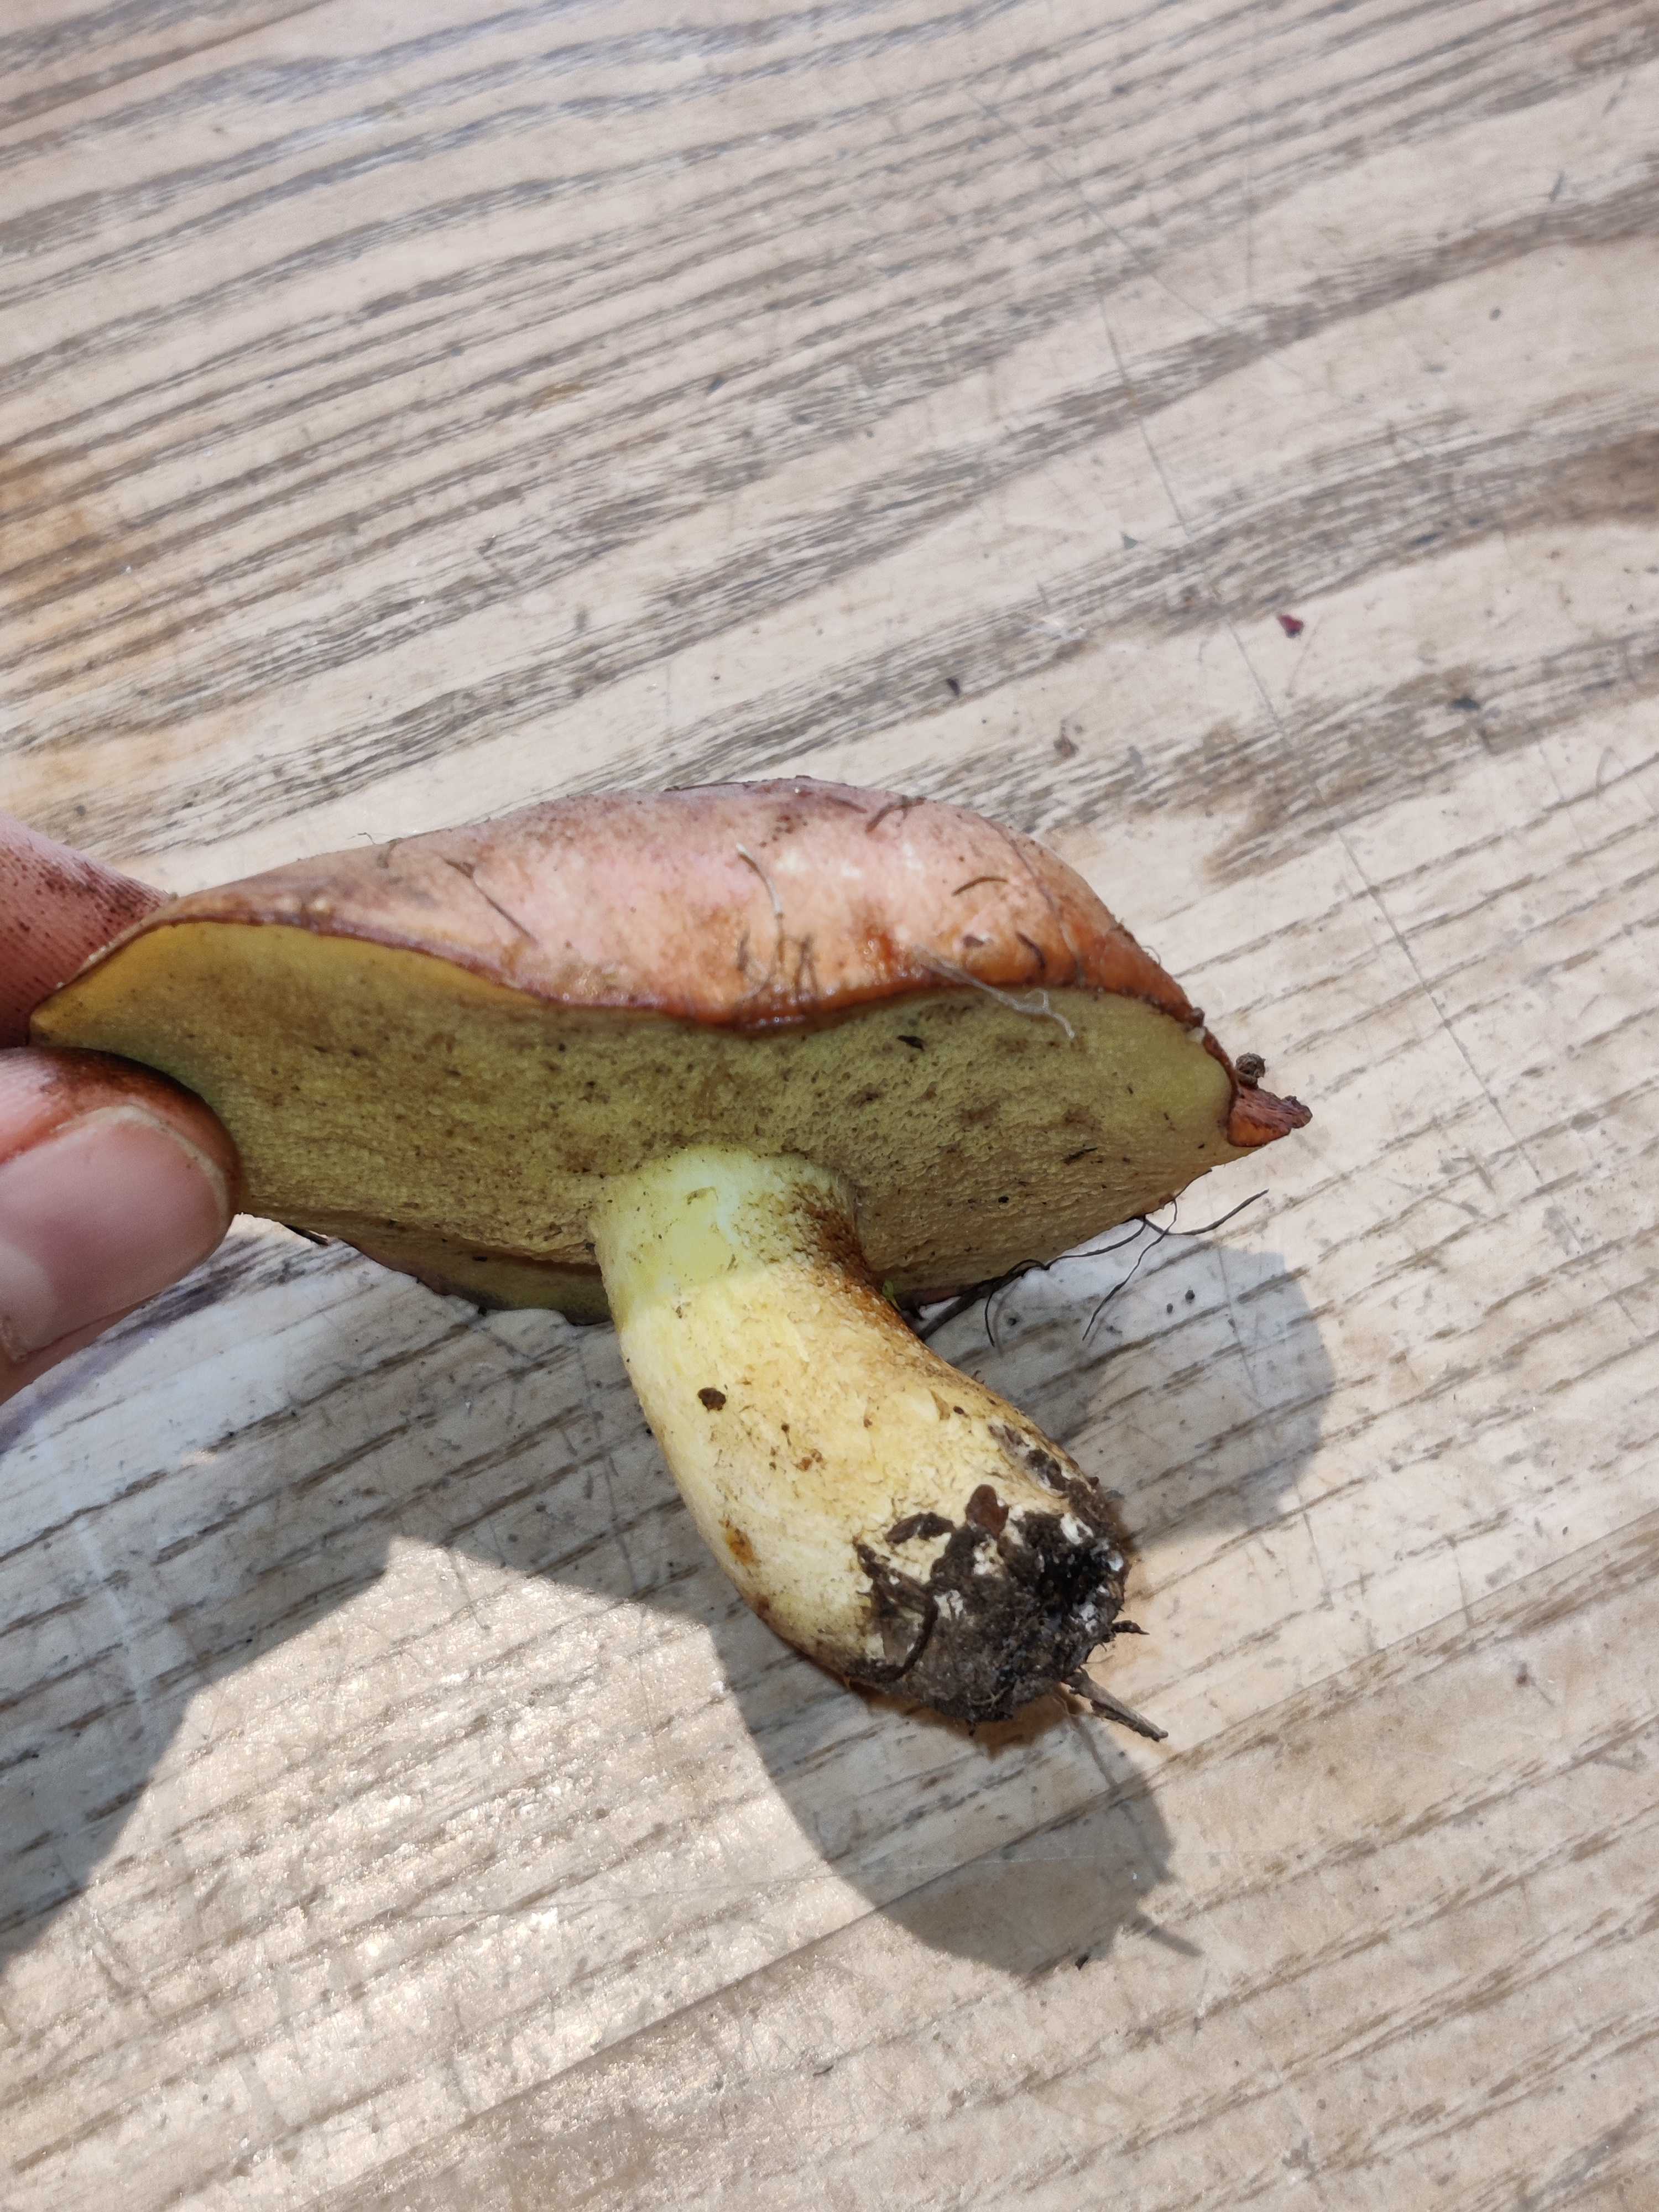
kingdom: Fungi
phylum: Basidiomycota
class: Agaricomycetes
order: Boletales
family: Suillaceae
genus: Suillus
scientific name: Suillus granulatus
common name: kornet slimrørhat
